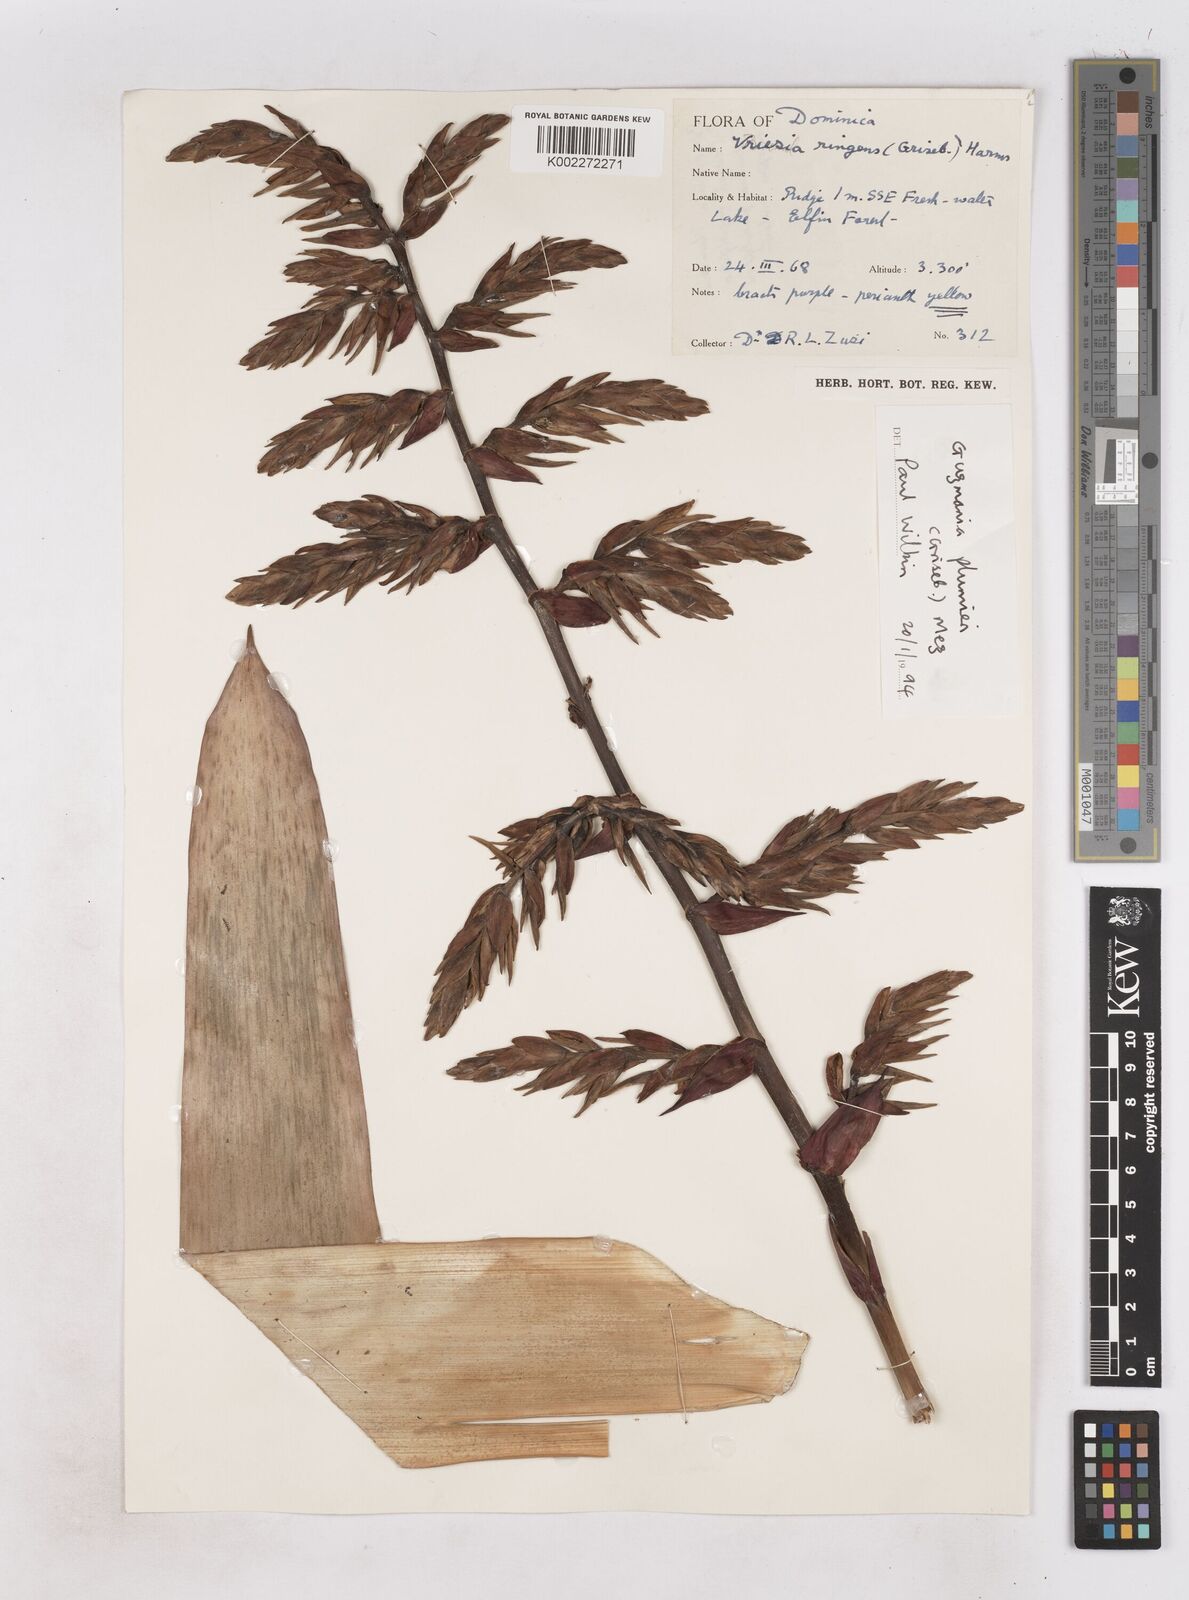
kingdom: Plantae
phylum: Tracheophyta
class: Liliopsida
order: Poales
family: Bromeliaceae
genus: Guzmania
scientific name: Guzmania plumieri
